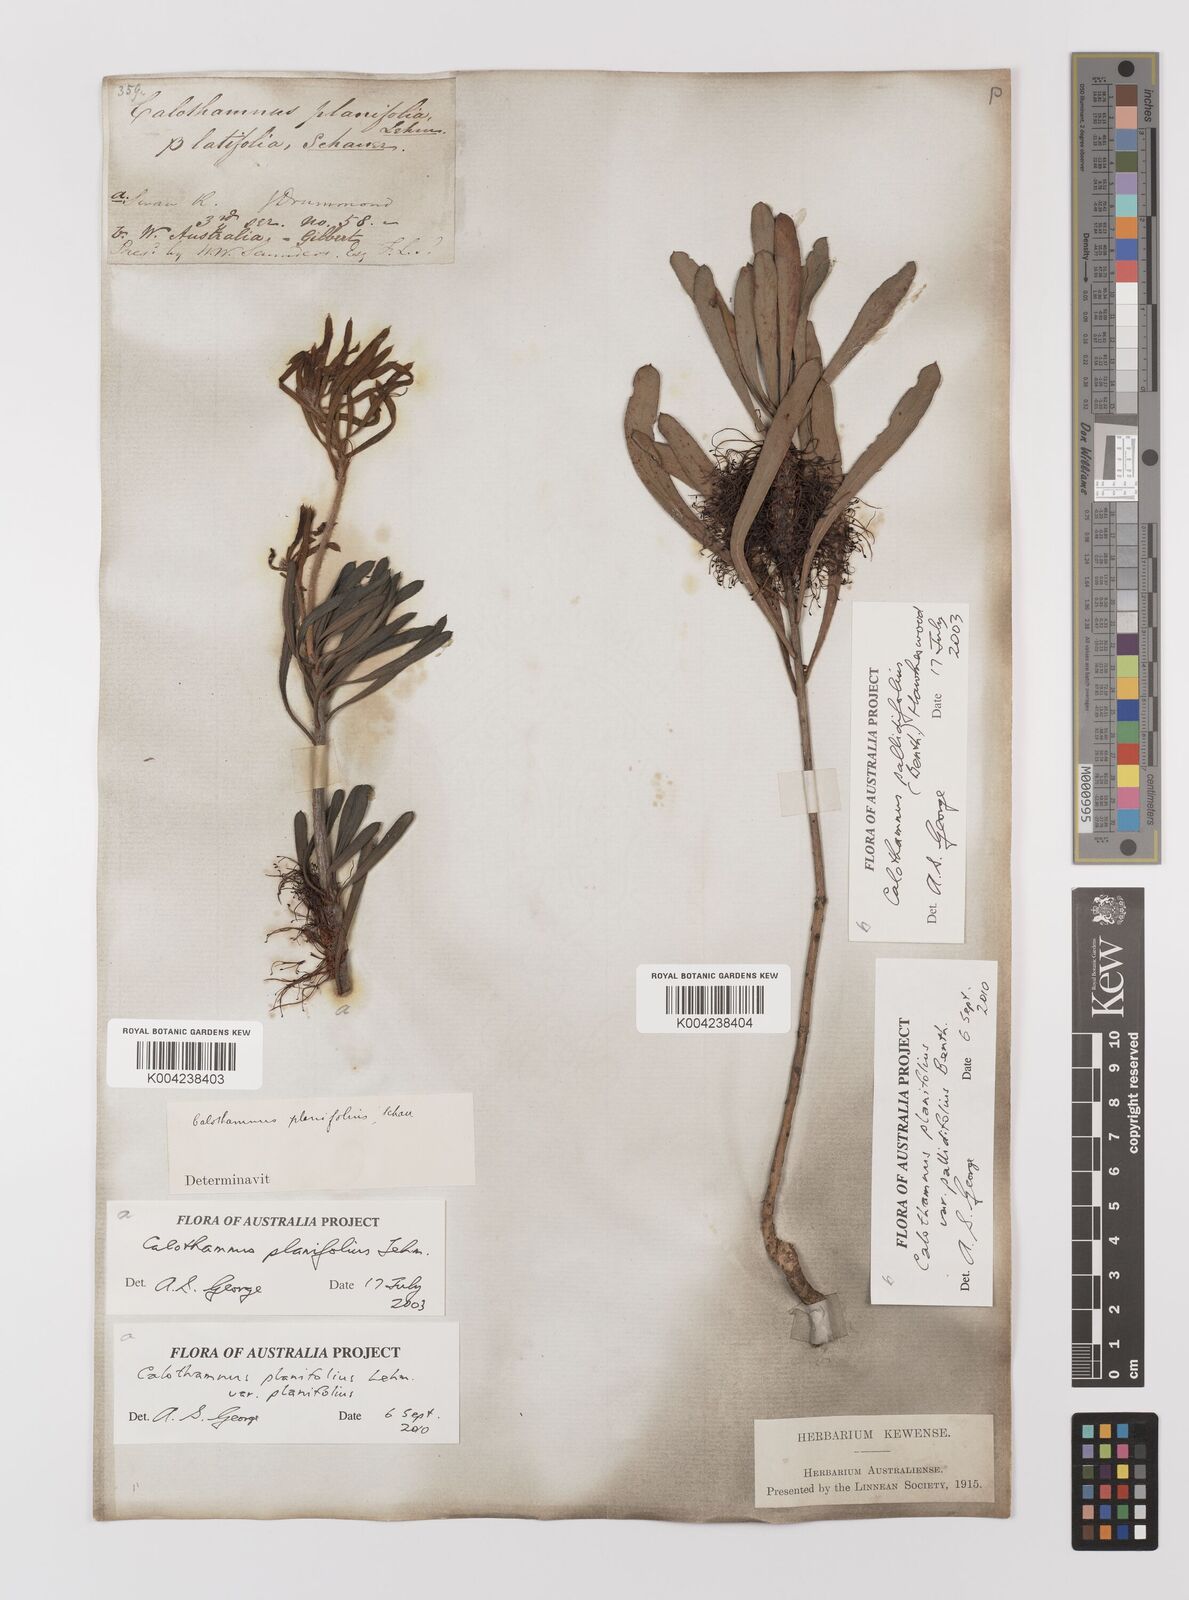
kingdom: Plantae
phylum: Tracheophyta
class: Magnoliopsida
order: Myrtales
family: Myrtaceae
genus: Melaleuca
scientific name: Melaleuca planifolia
